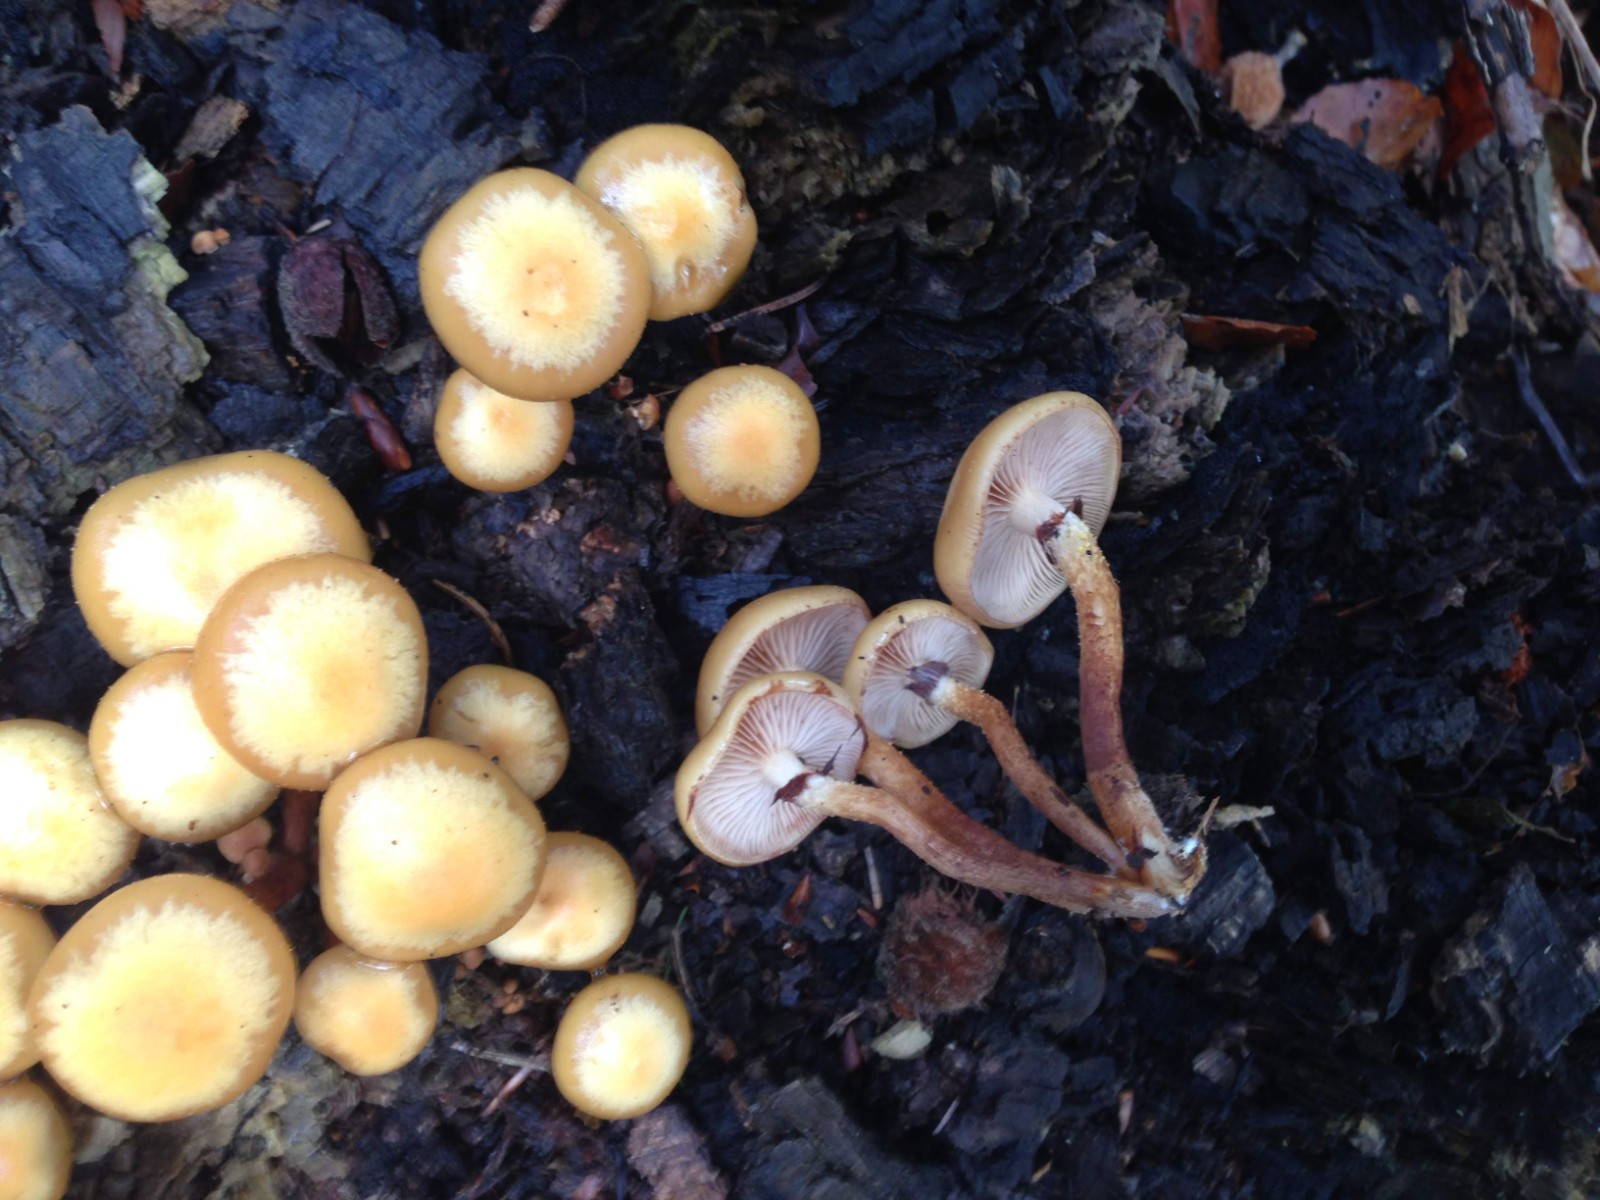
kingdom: Fungi
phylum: Basidiomycota
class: Agaricomycetes
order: Agaricales
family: Strophariaceae
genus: Kuehneromyces
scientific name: Kuehneromyces mutabilis
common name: foranderlig skælhat
